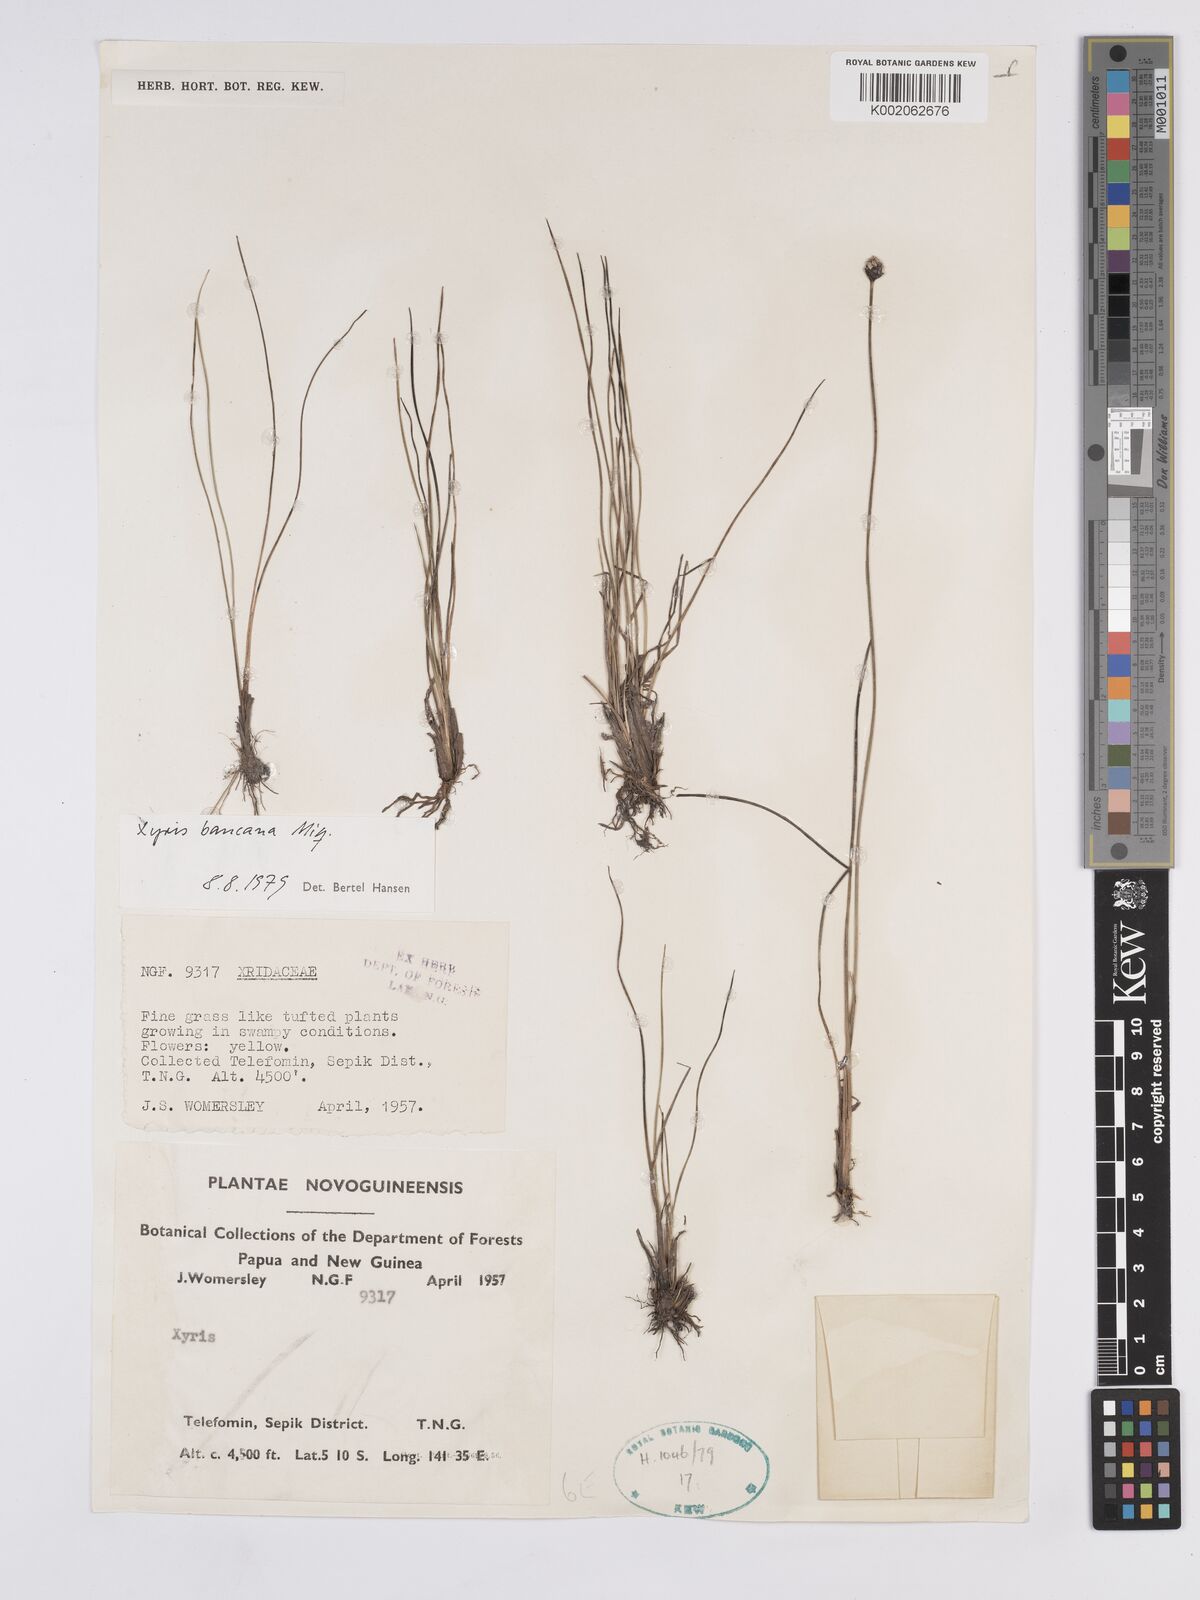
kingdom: Plantae
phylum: Tracheophyta
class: Liliopsida
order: Poales
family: Xyridaceae
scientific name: Xyridaceae
